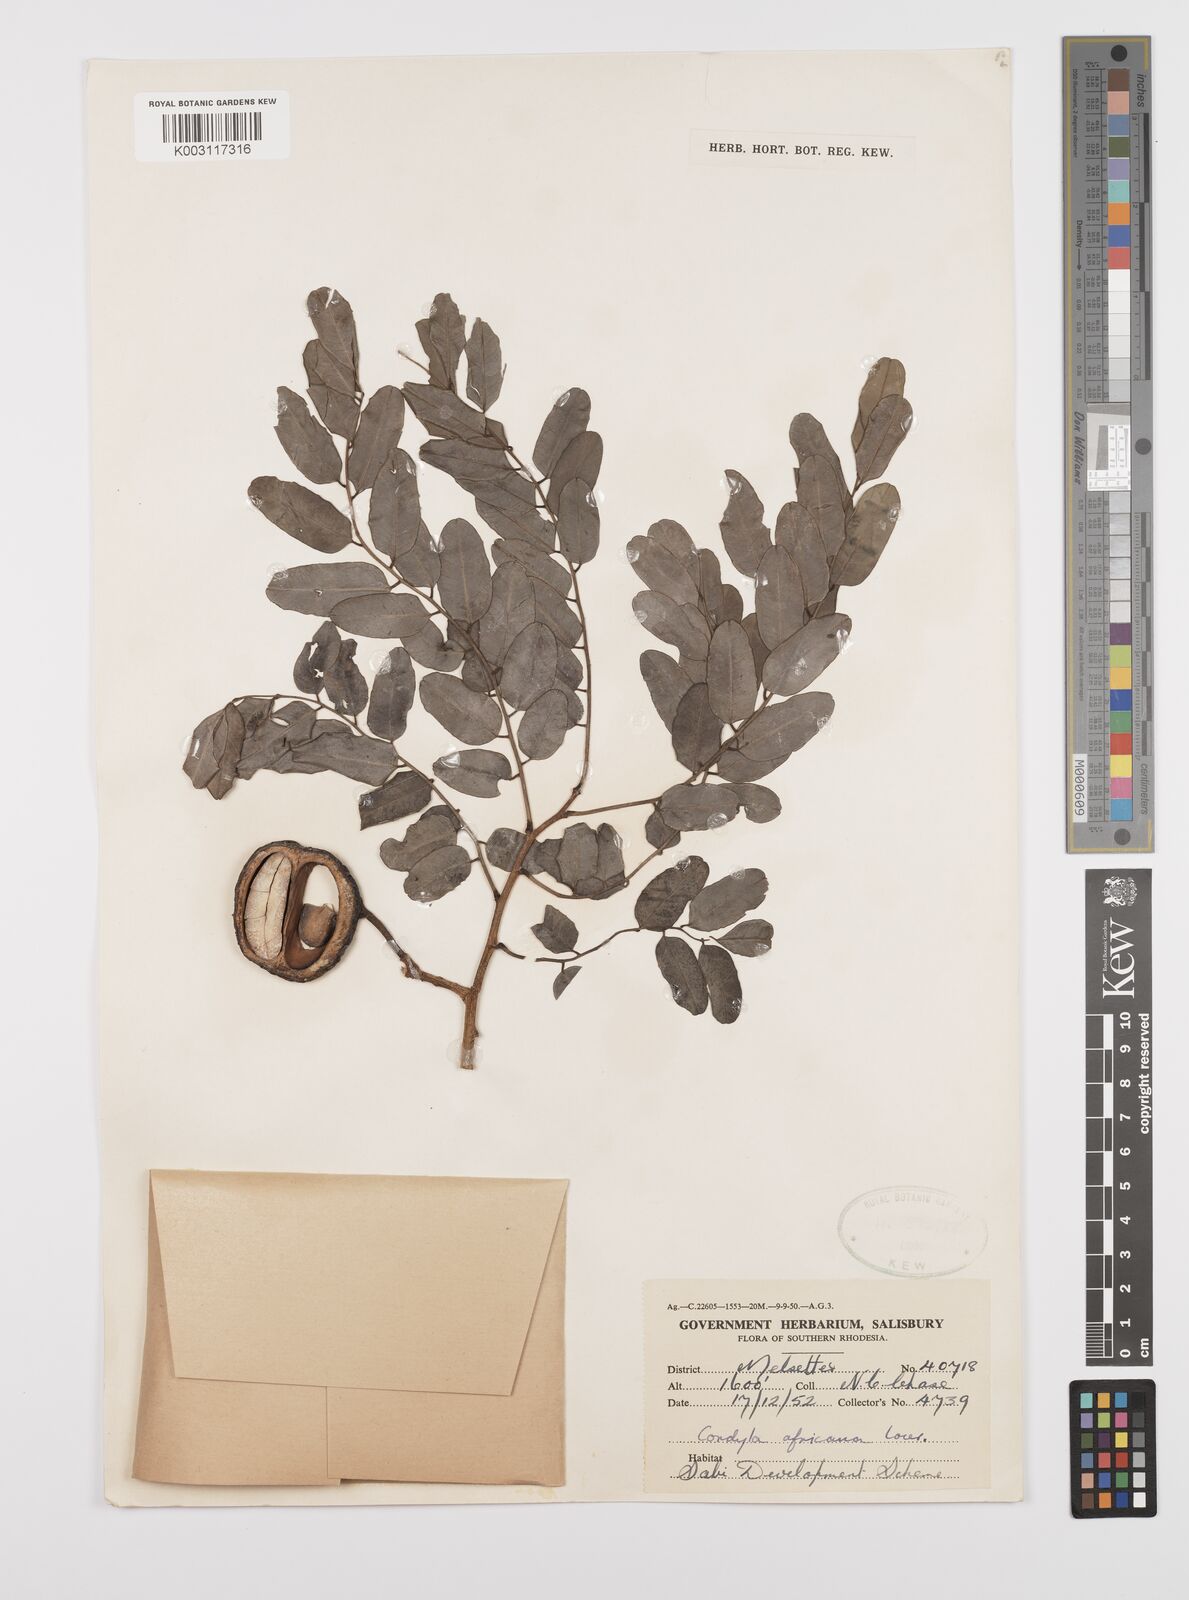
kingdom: Plantae
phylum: Tracheophyta
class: Magnoliopsida
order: Fabales
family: Fabaceae
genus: Cordyla
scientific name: Cordyla africana
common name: Wild mango
